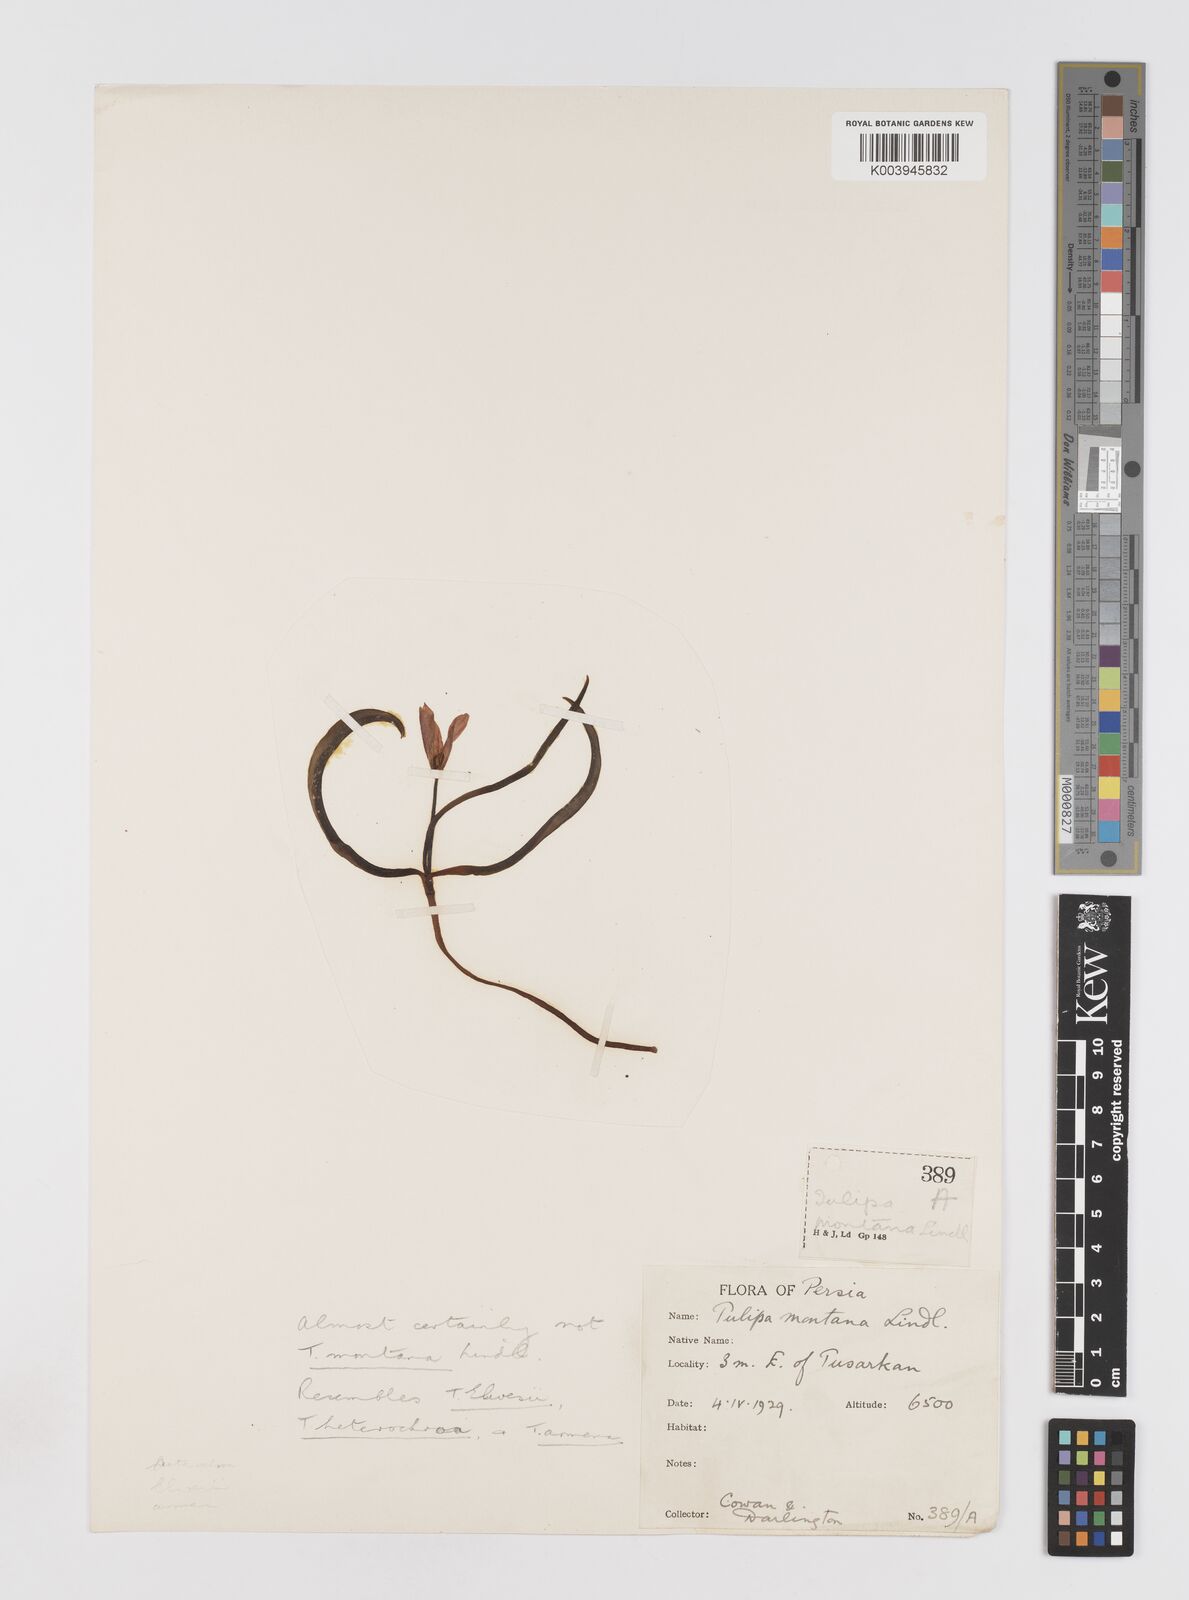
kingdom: Plantae
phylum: Tracheophyta
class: Liliopsida
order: Liliales
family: Liliaceae
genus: Tulipa
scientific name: Tulipa sylvestris
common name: Wild tulip
